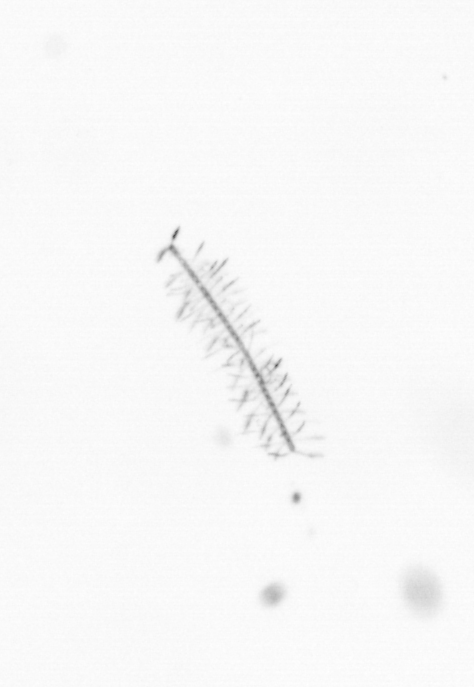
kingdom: Chromista
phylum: Ochrophyta
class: Bacillariophyceae
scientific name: Bacillariophyceae
